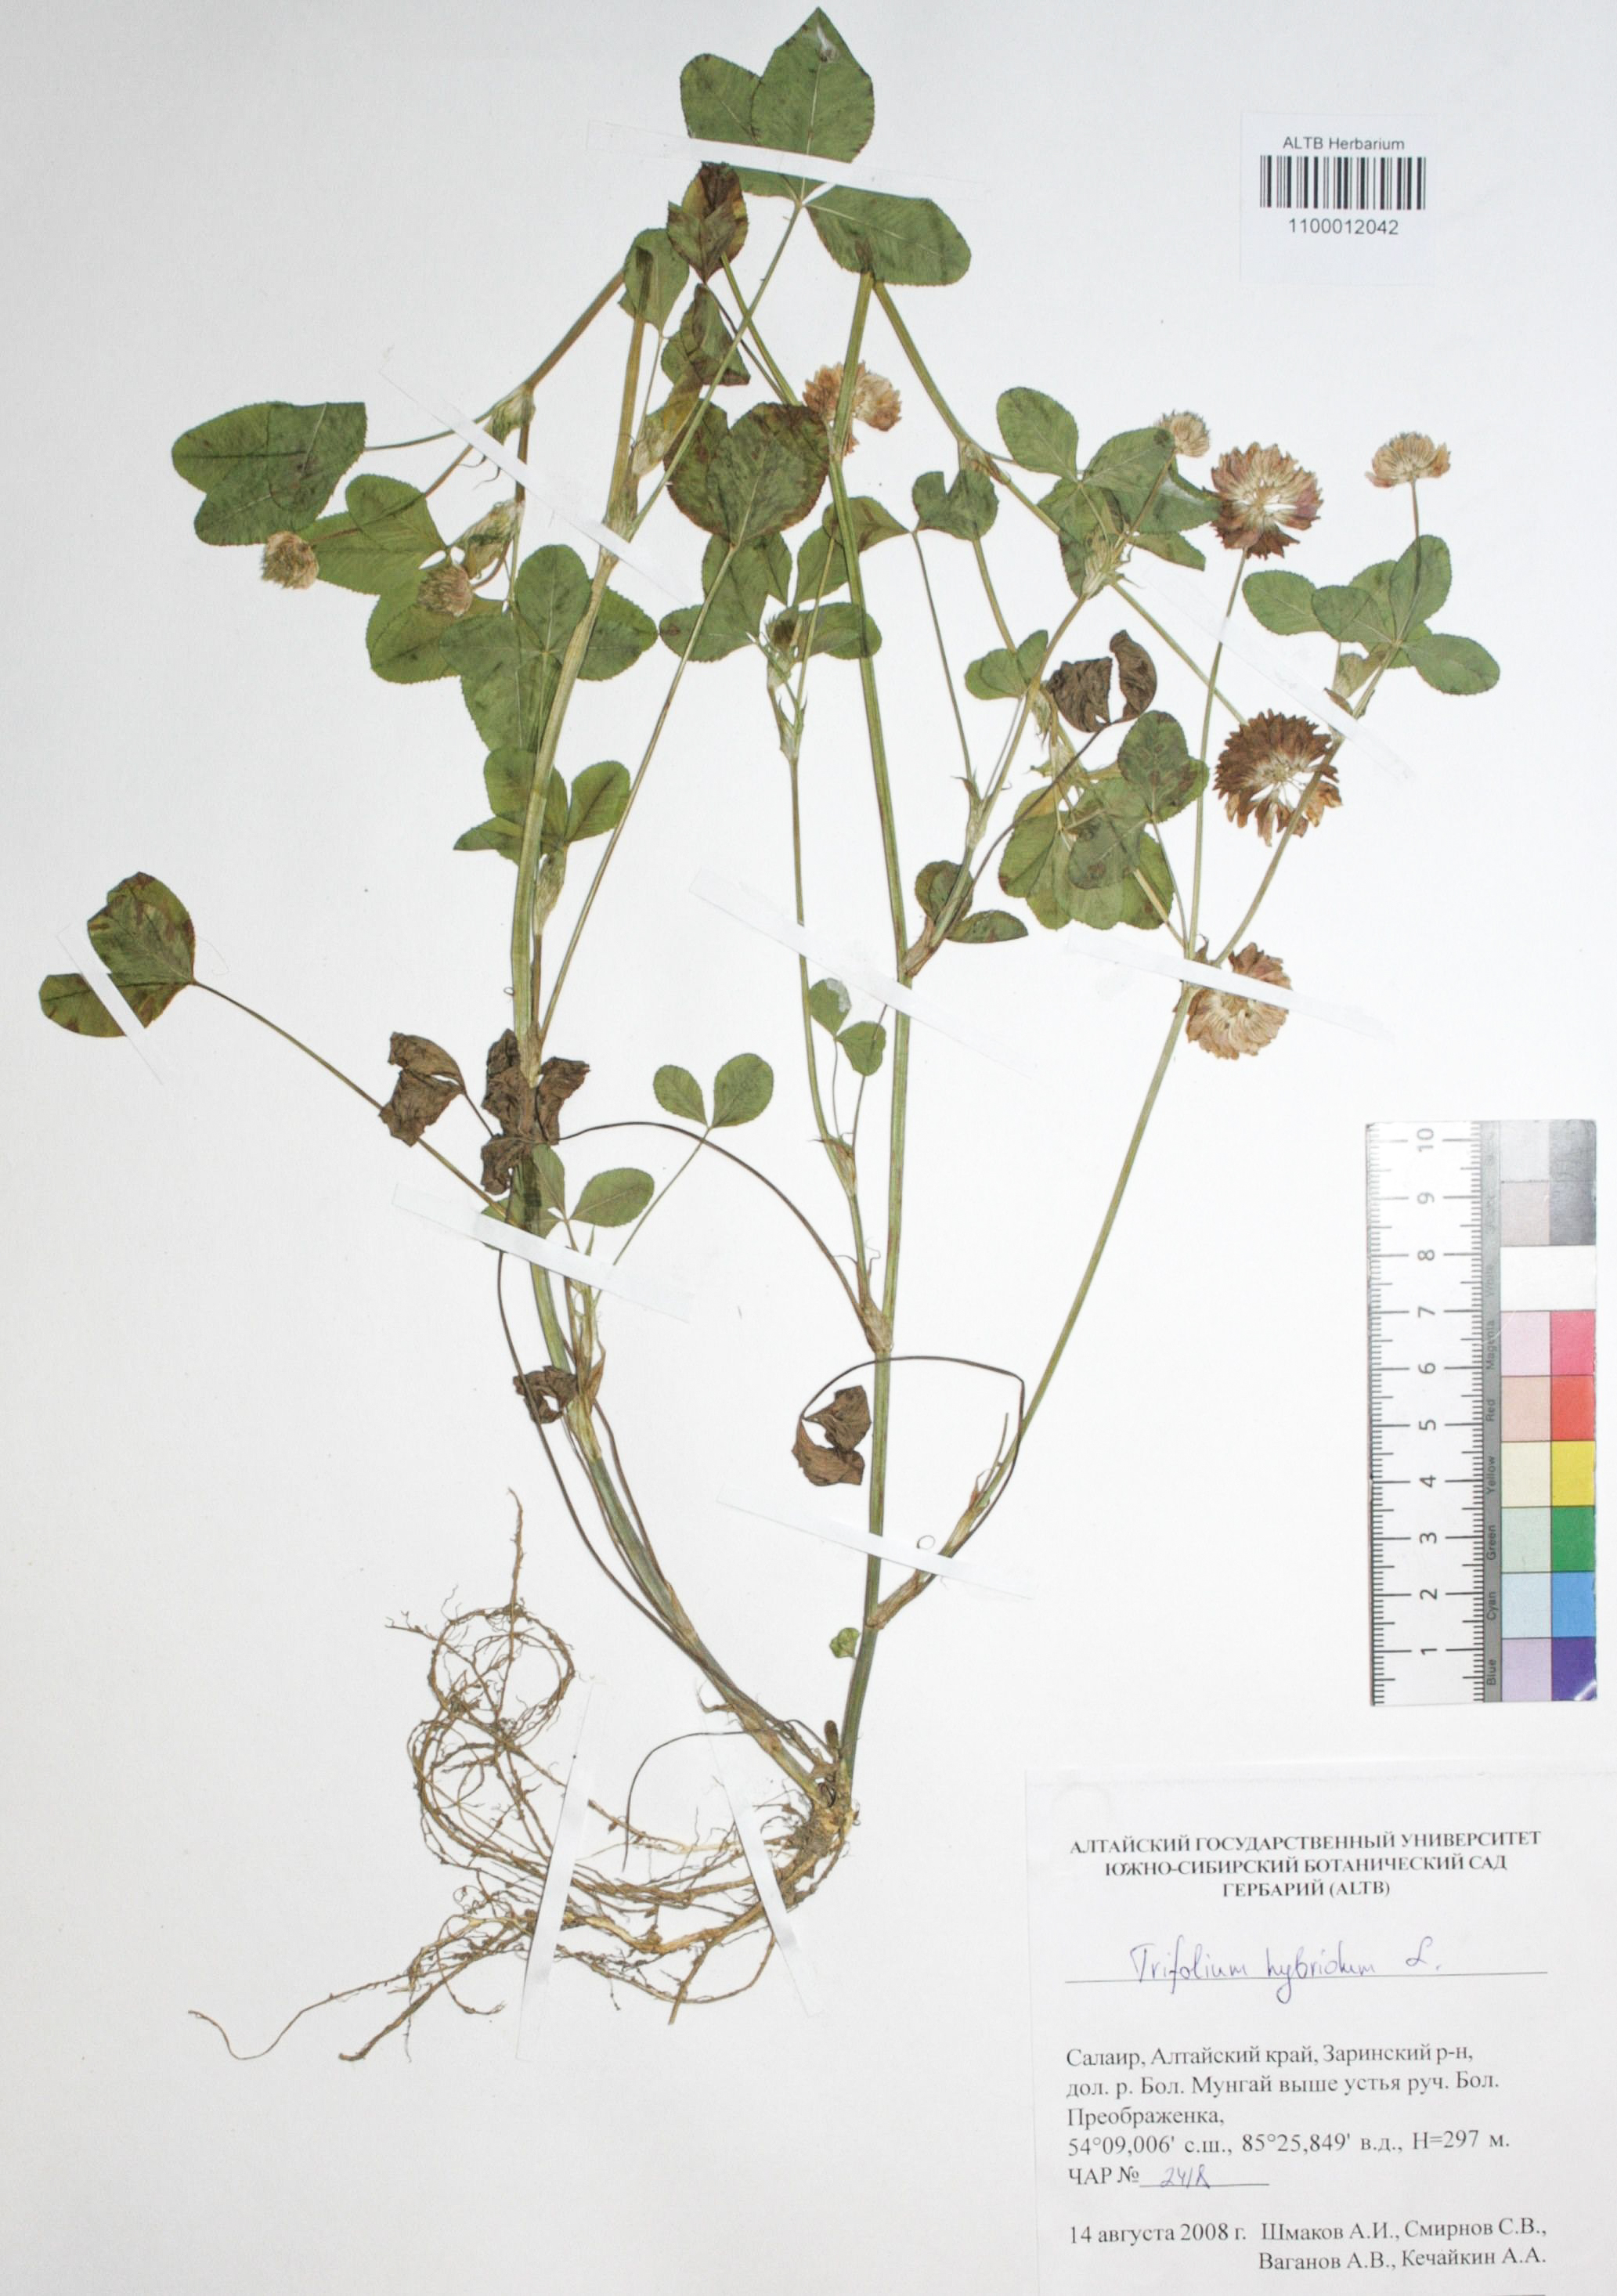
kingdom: Plantae
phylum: Tracheophyta
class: Magnoliopsida
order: Fabales
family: Fabaceae
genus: Trifolium
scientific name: Trifolium hybridum
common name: Alsike clover
